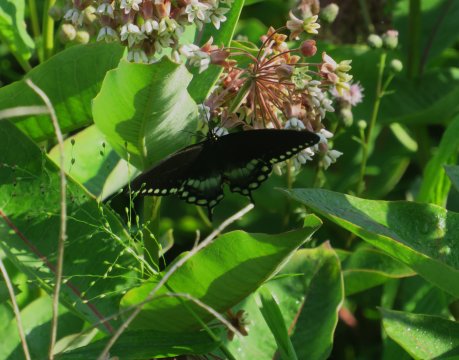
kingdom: Animalia
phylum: Arthropoda
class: Insecta
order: Lepidoptera
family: Papilionidae
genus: Pterourus
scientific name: Pterourus troilus
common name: Spicebush Swallowtail
